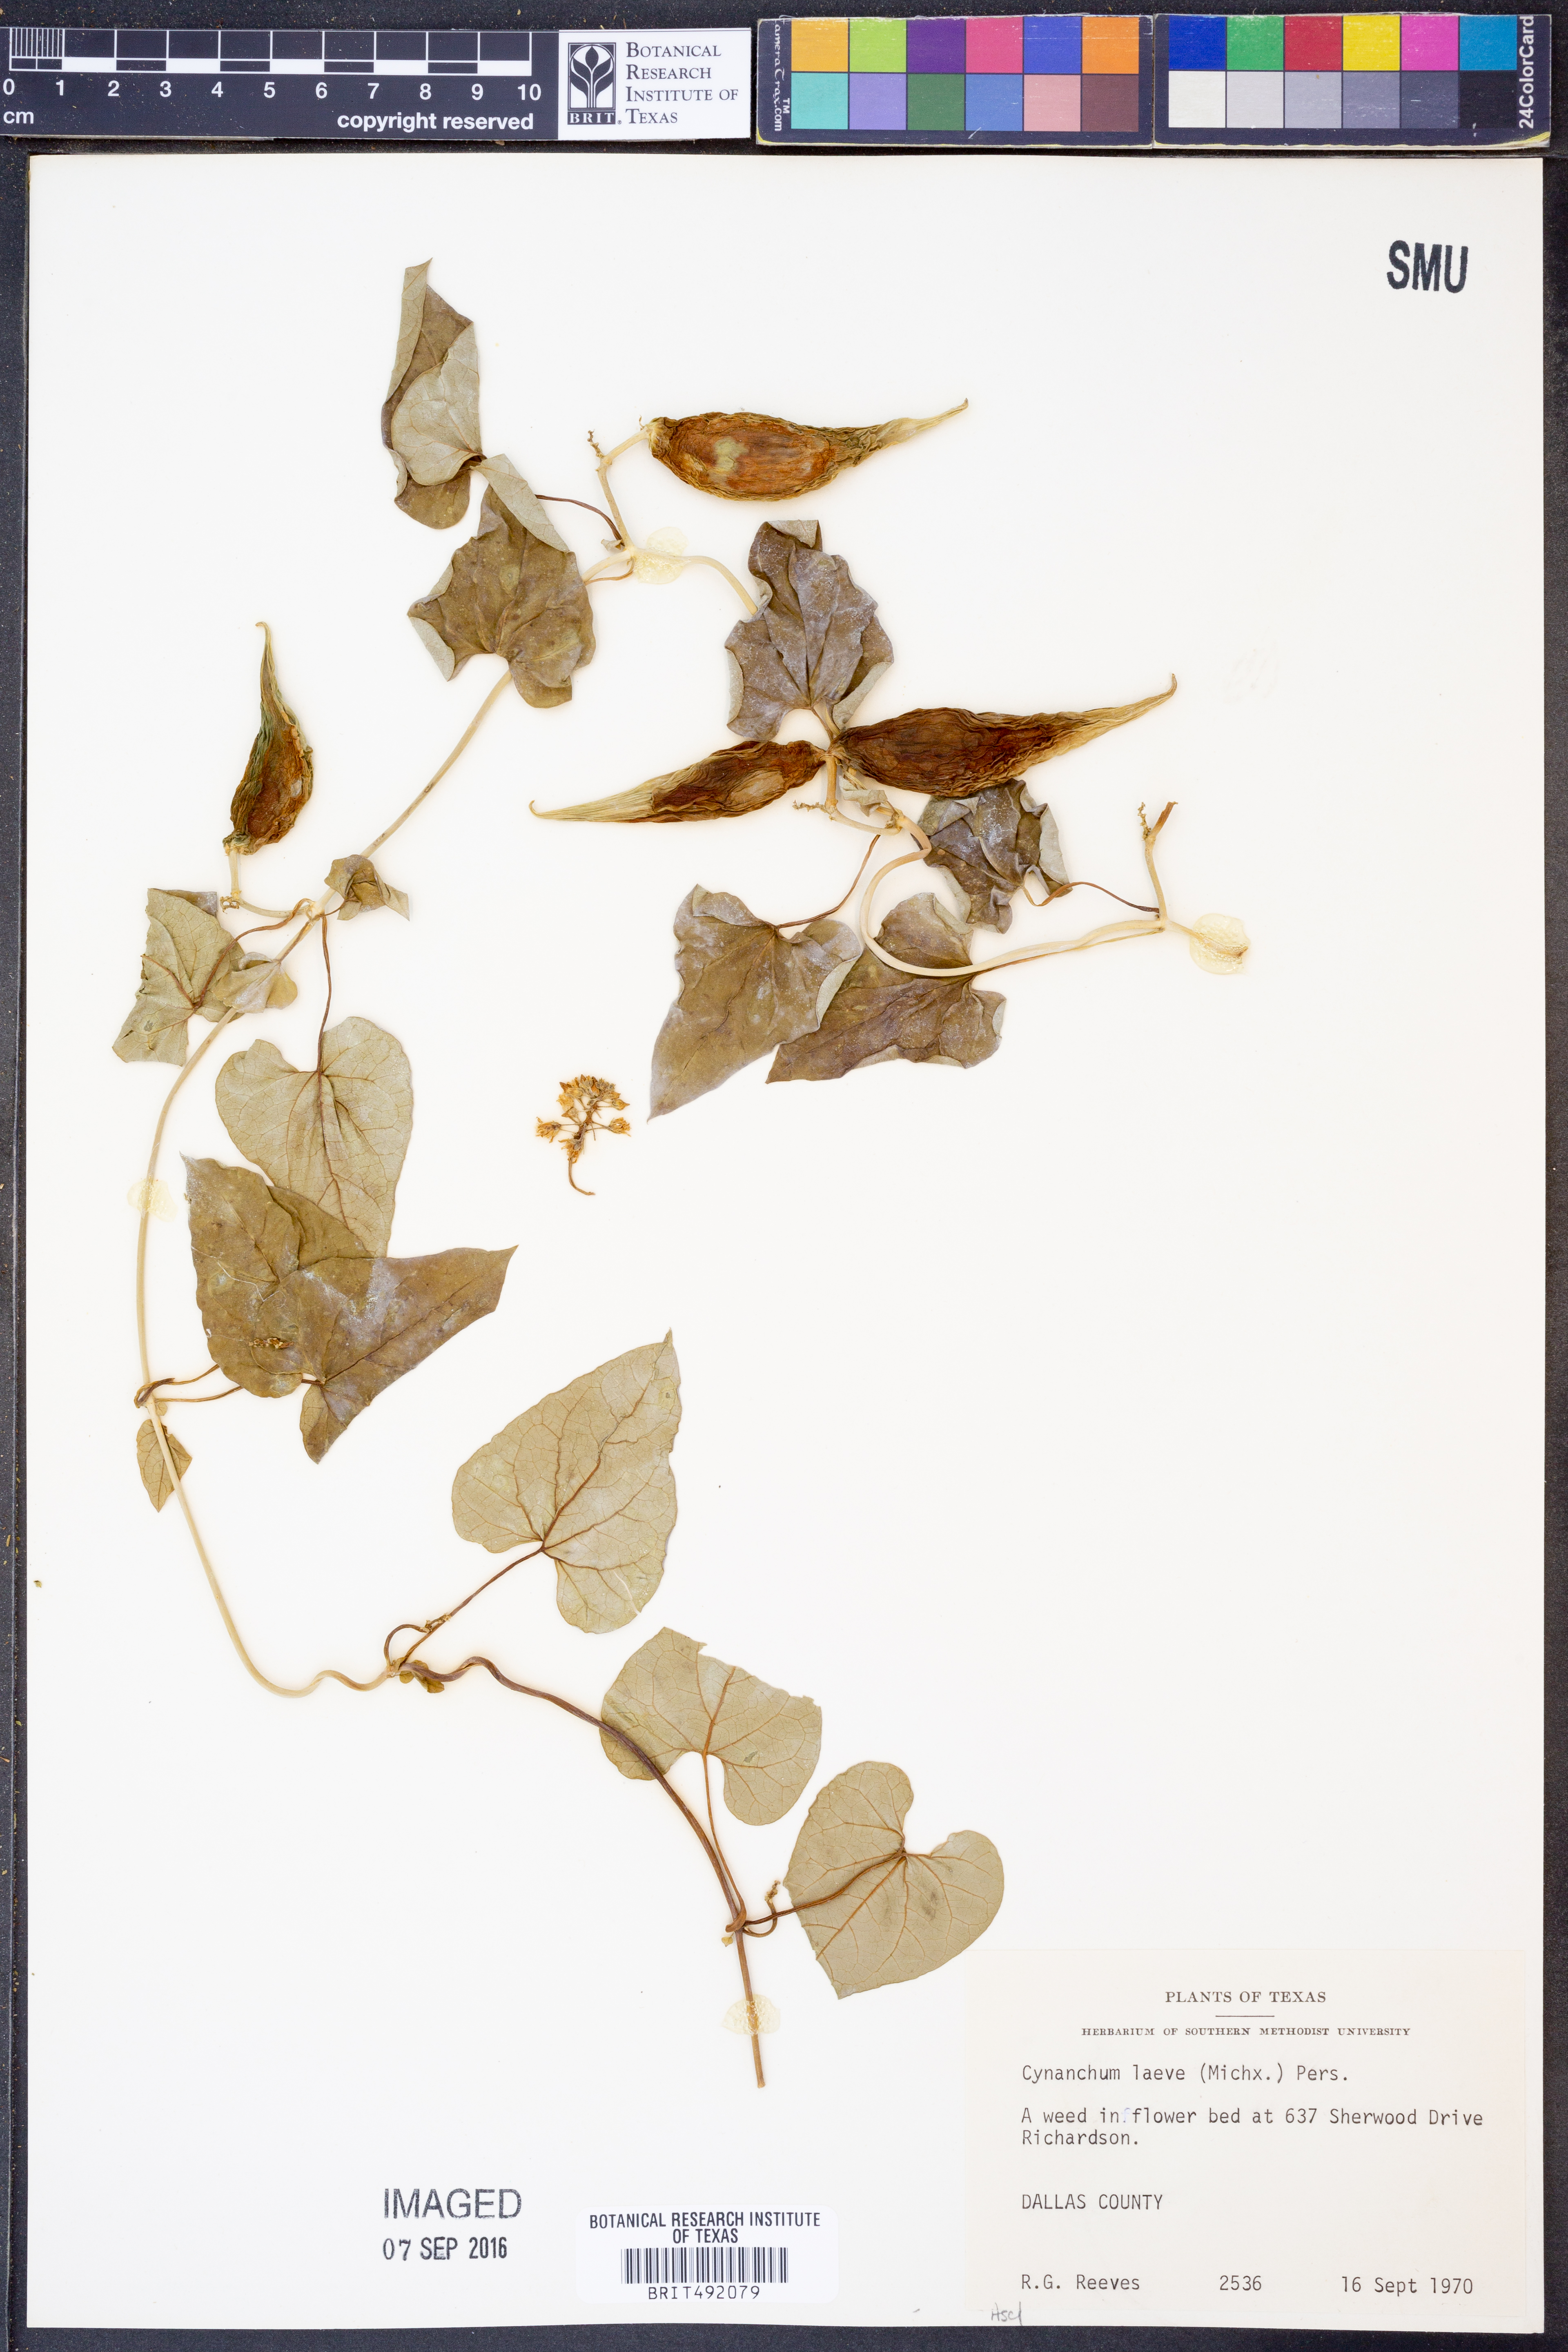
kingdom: Plantae
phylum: Tracheophyta
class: Magnoliopsida
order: Gentianales
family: Apocynaceae
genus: Cynanchum
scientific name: Cynanchum laeve
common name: Sandvine
